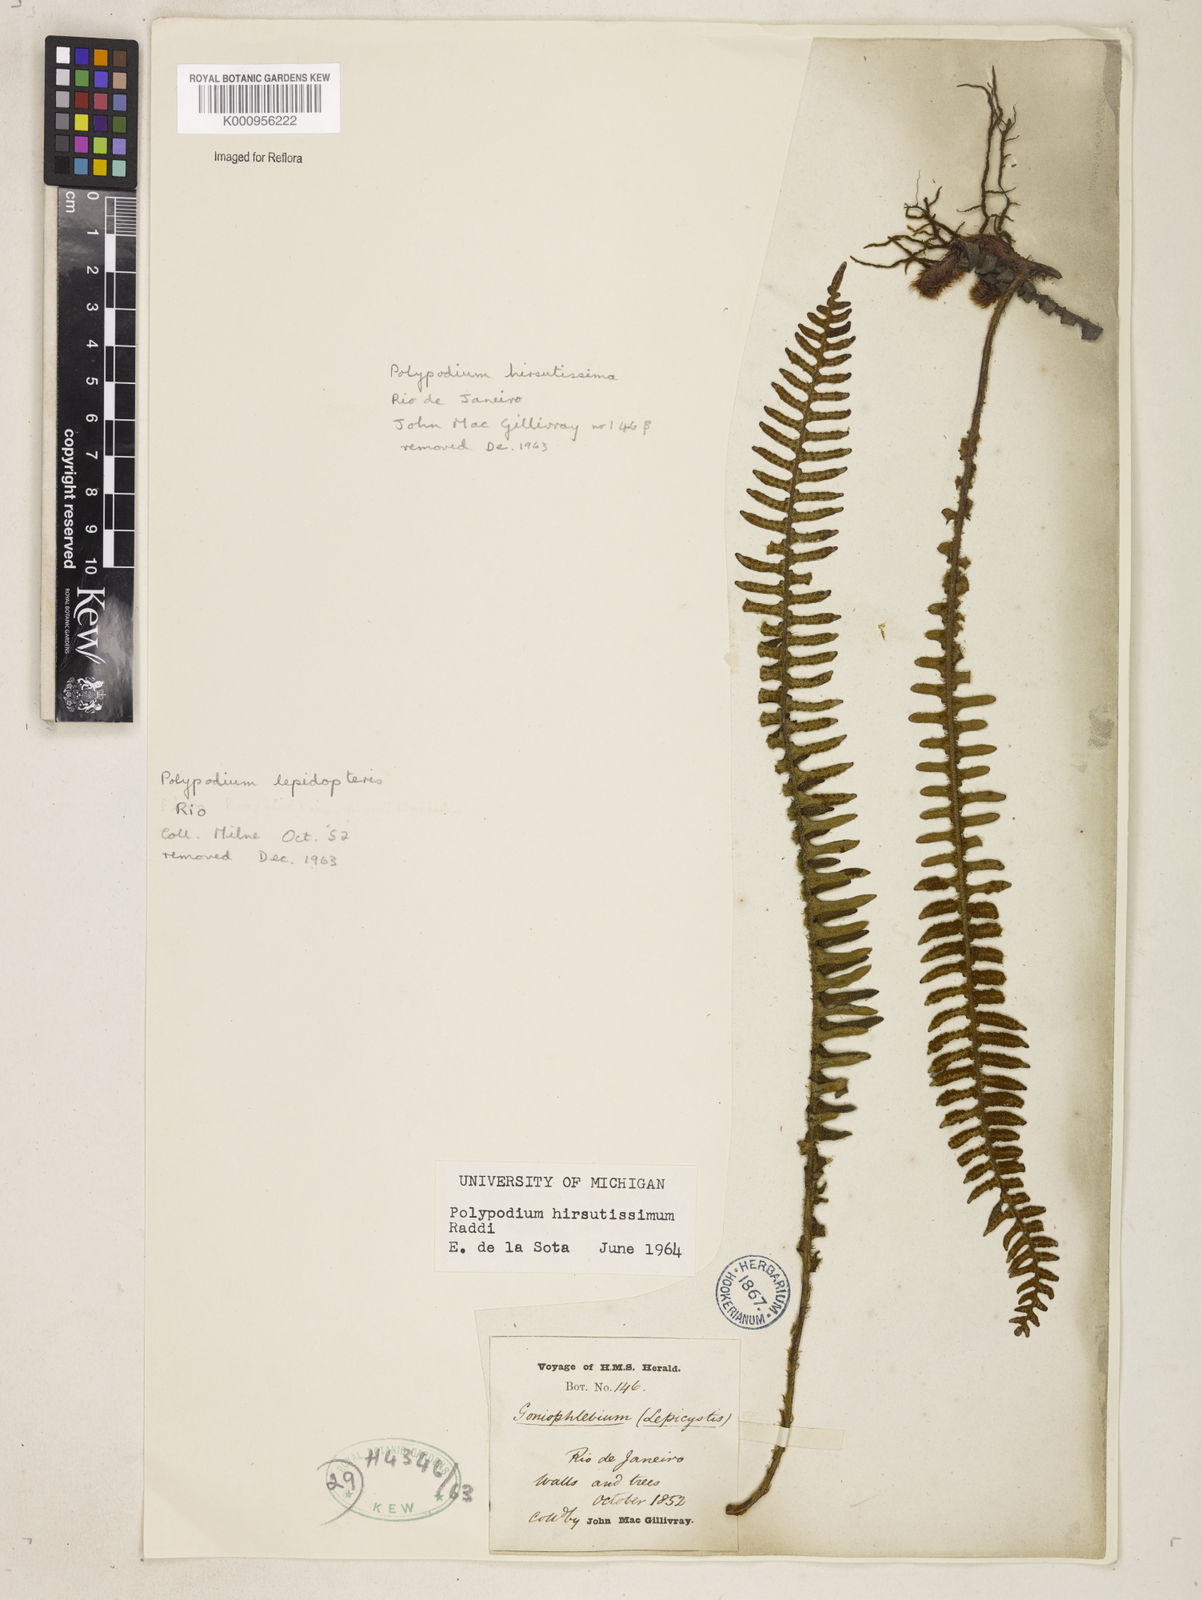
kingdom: Plantae
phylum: Tracheophyta
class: Polypodiopsida
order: Polypodiales
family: Polypodiaceae
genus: Pleopeltis
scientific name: Pleopeltis hirsutissima
